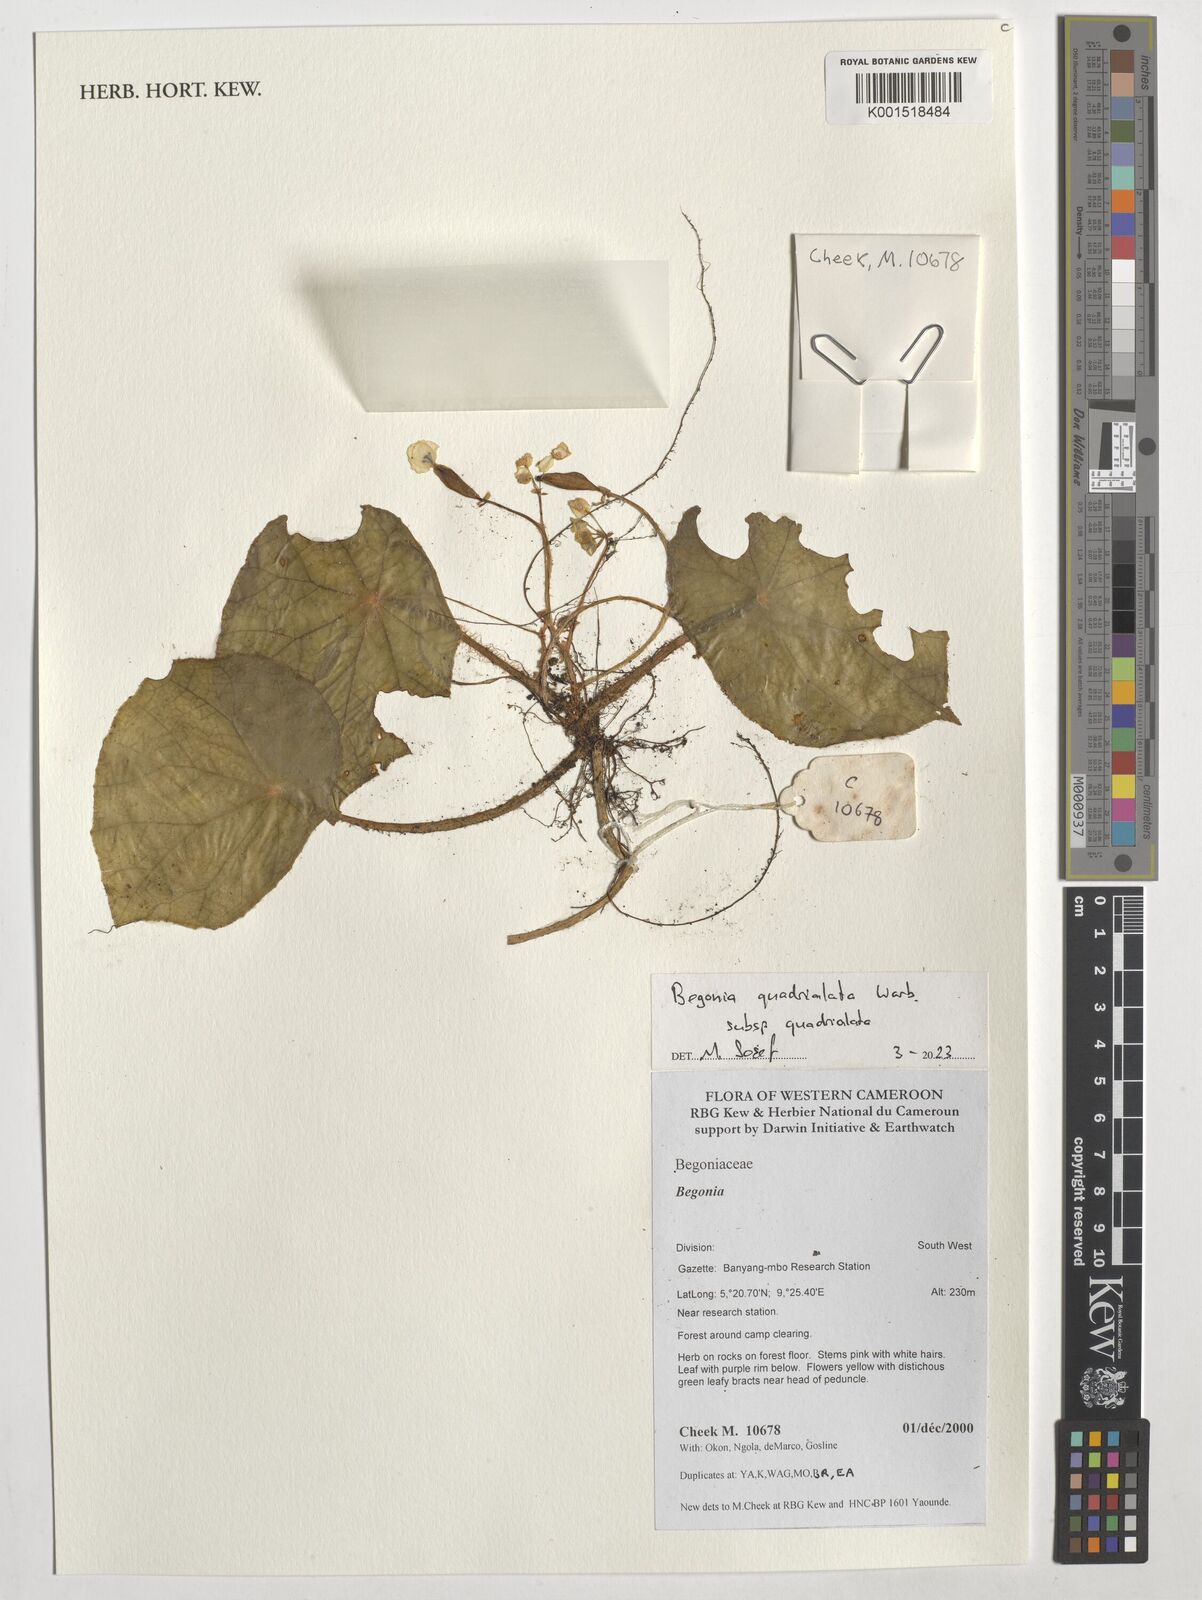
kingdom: Plantae
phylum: Tracheophyta
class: Magnoliopsida
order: Cucurbitales
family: Begoniaceae
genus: Begonia
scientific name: Begonia quadrialata
